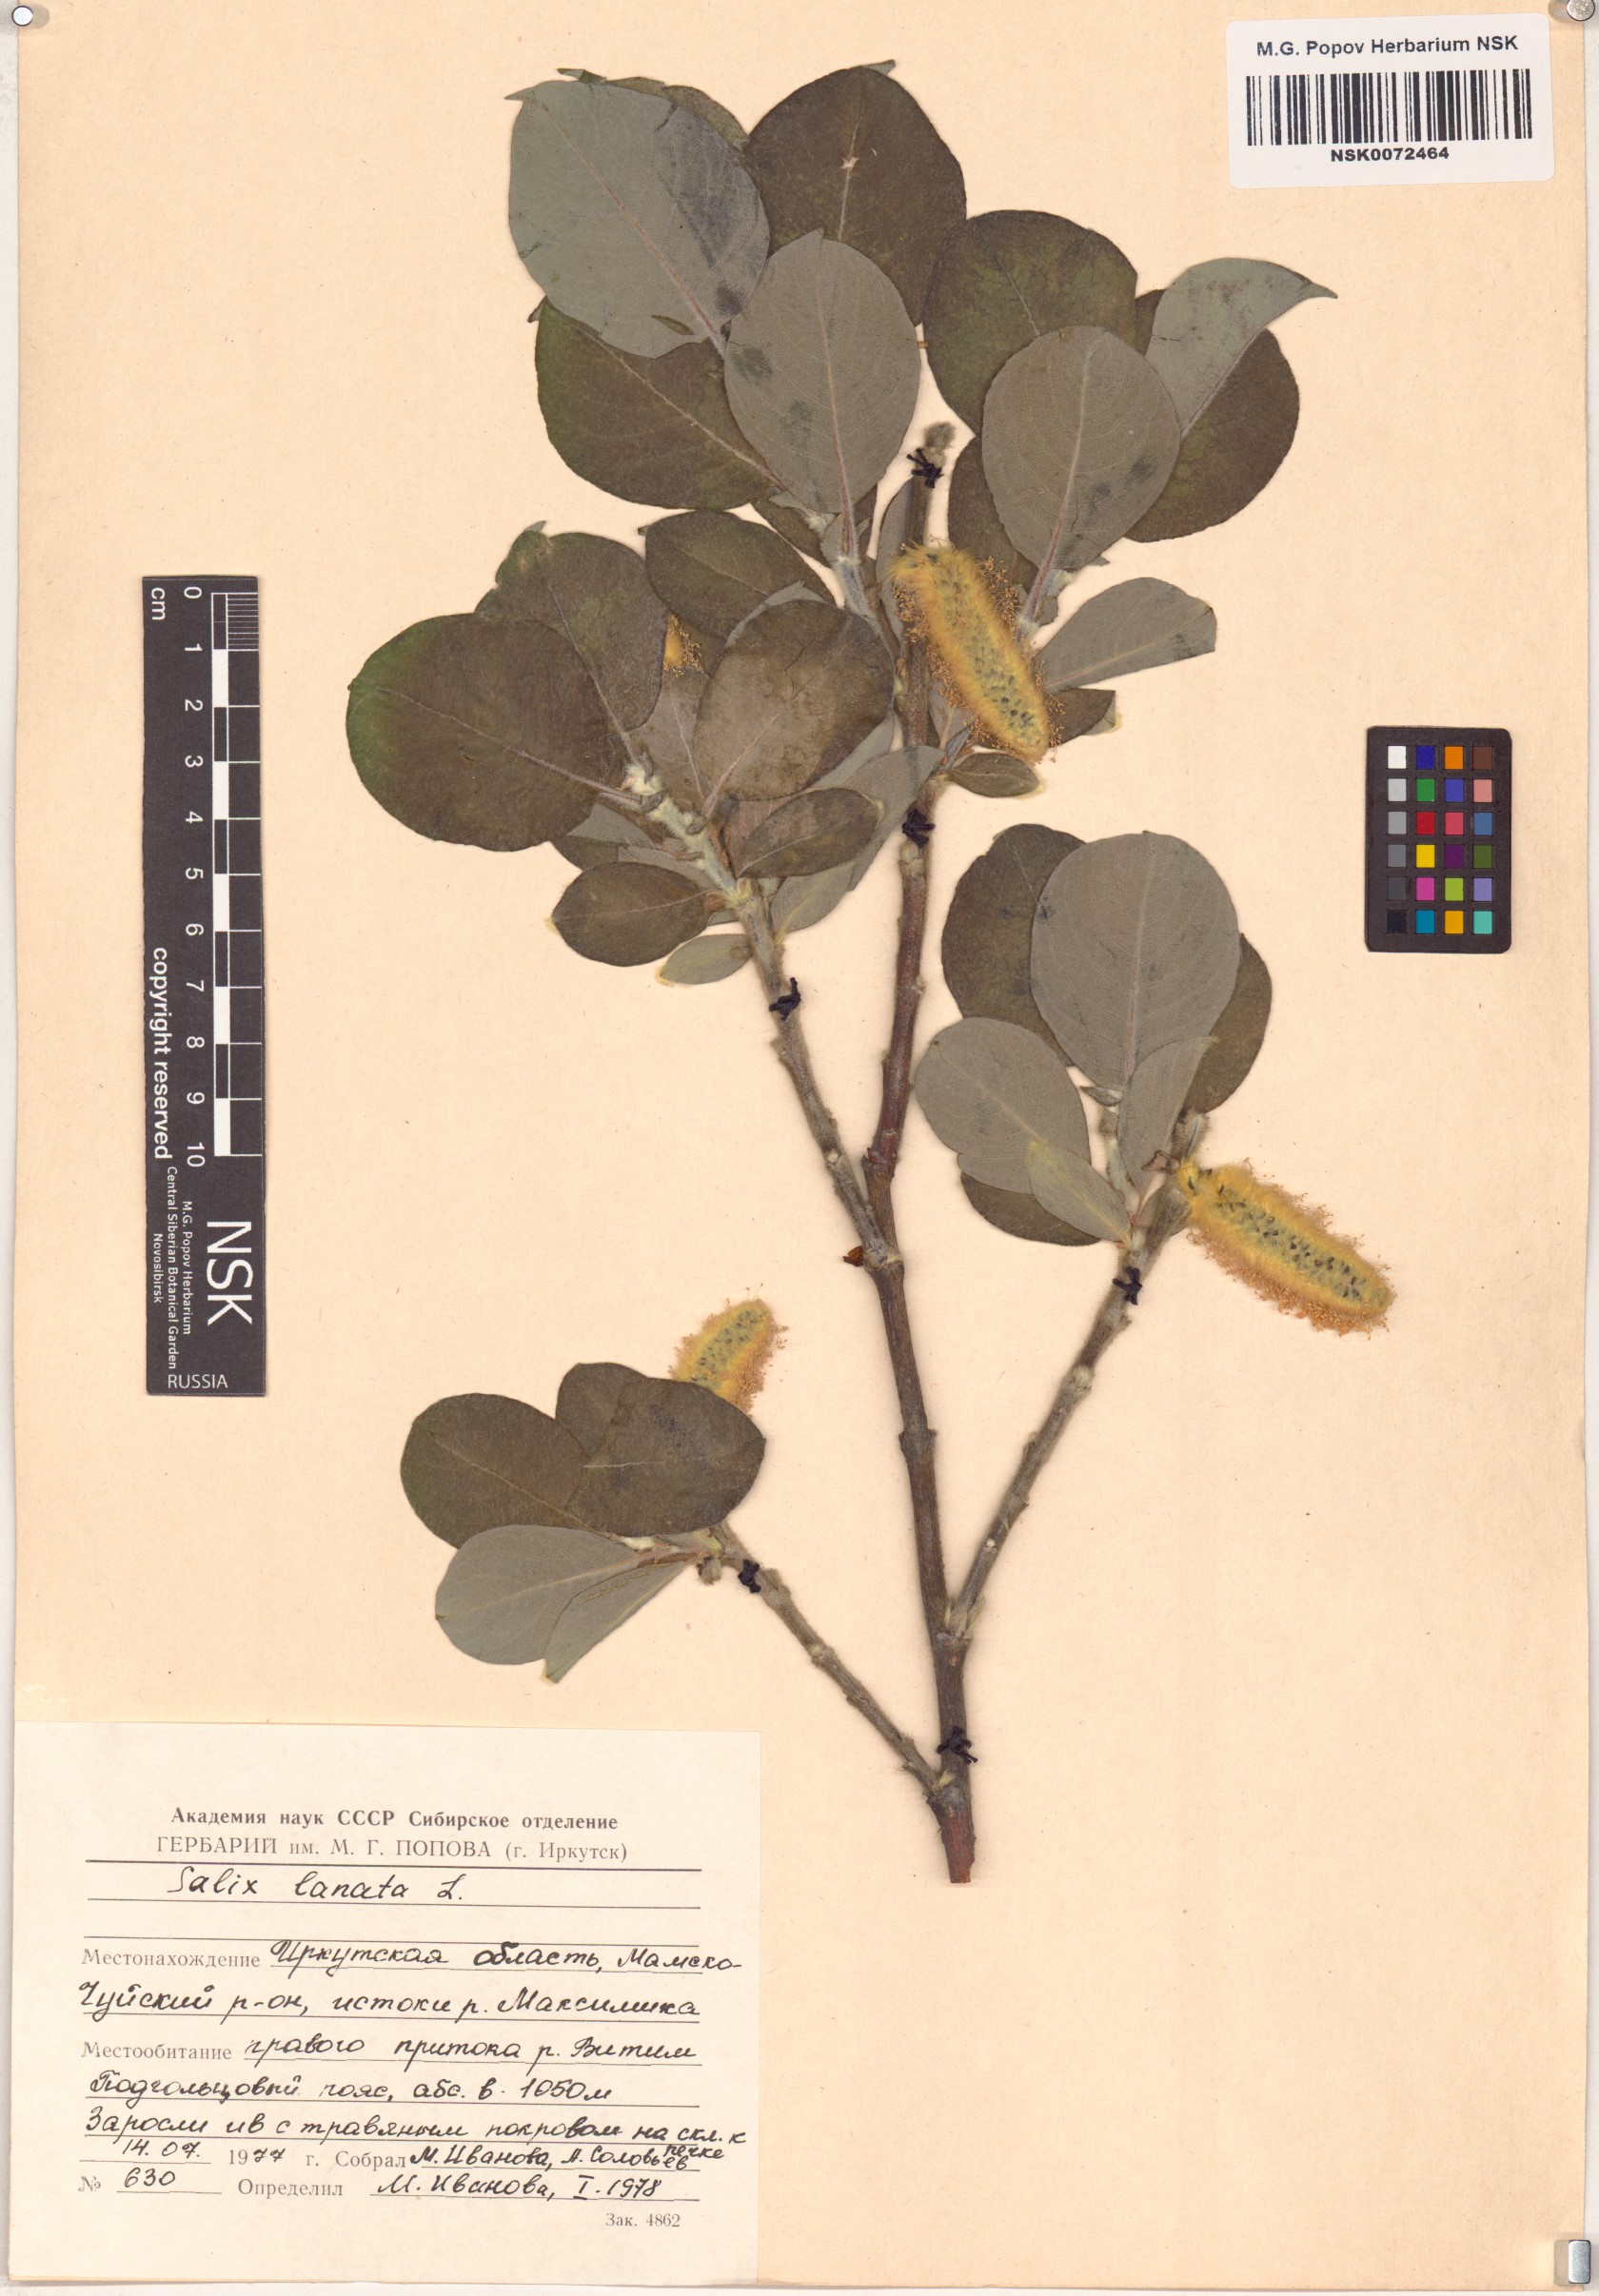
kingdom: Plantae
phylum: Tracheophyta
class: Magnoliopsida
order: Malpighiales
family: Salicaceae
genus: Salix
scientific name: Salix lanata
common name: Woolly willow
